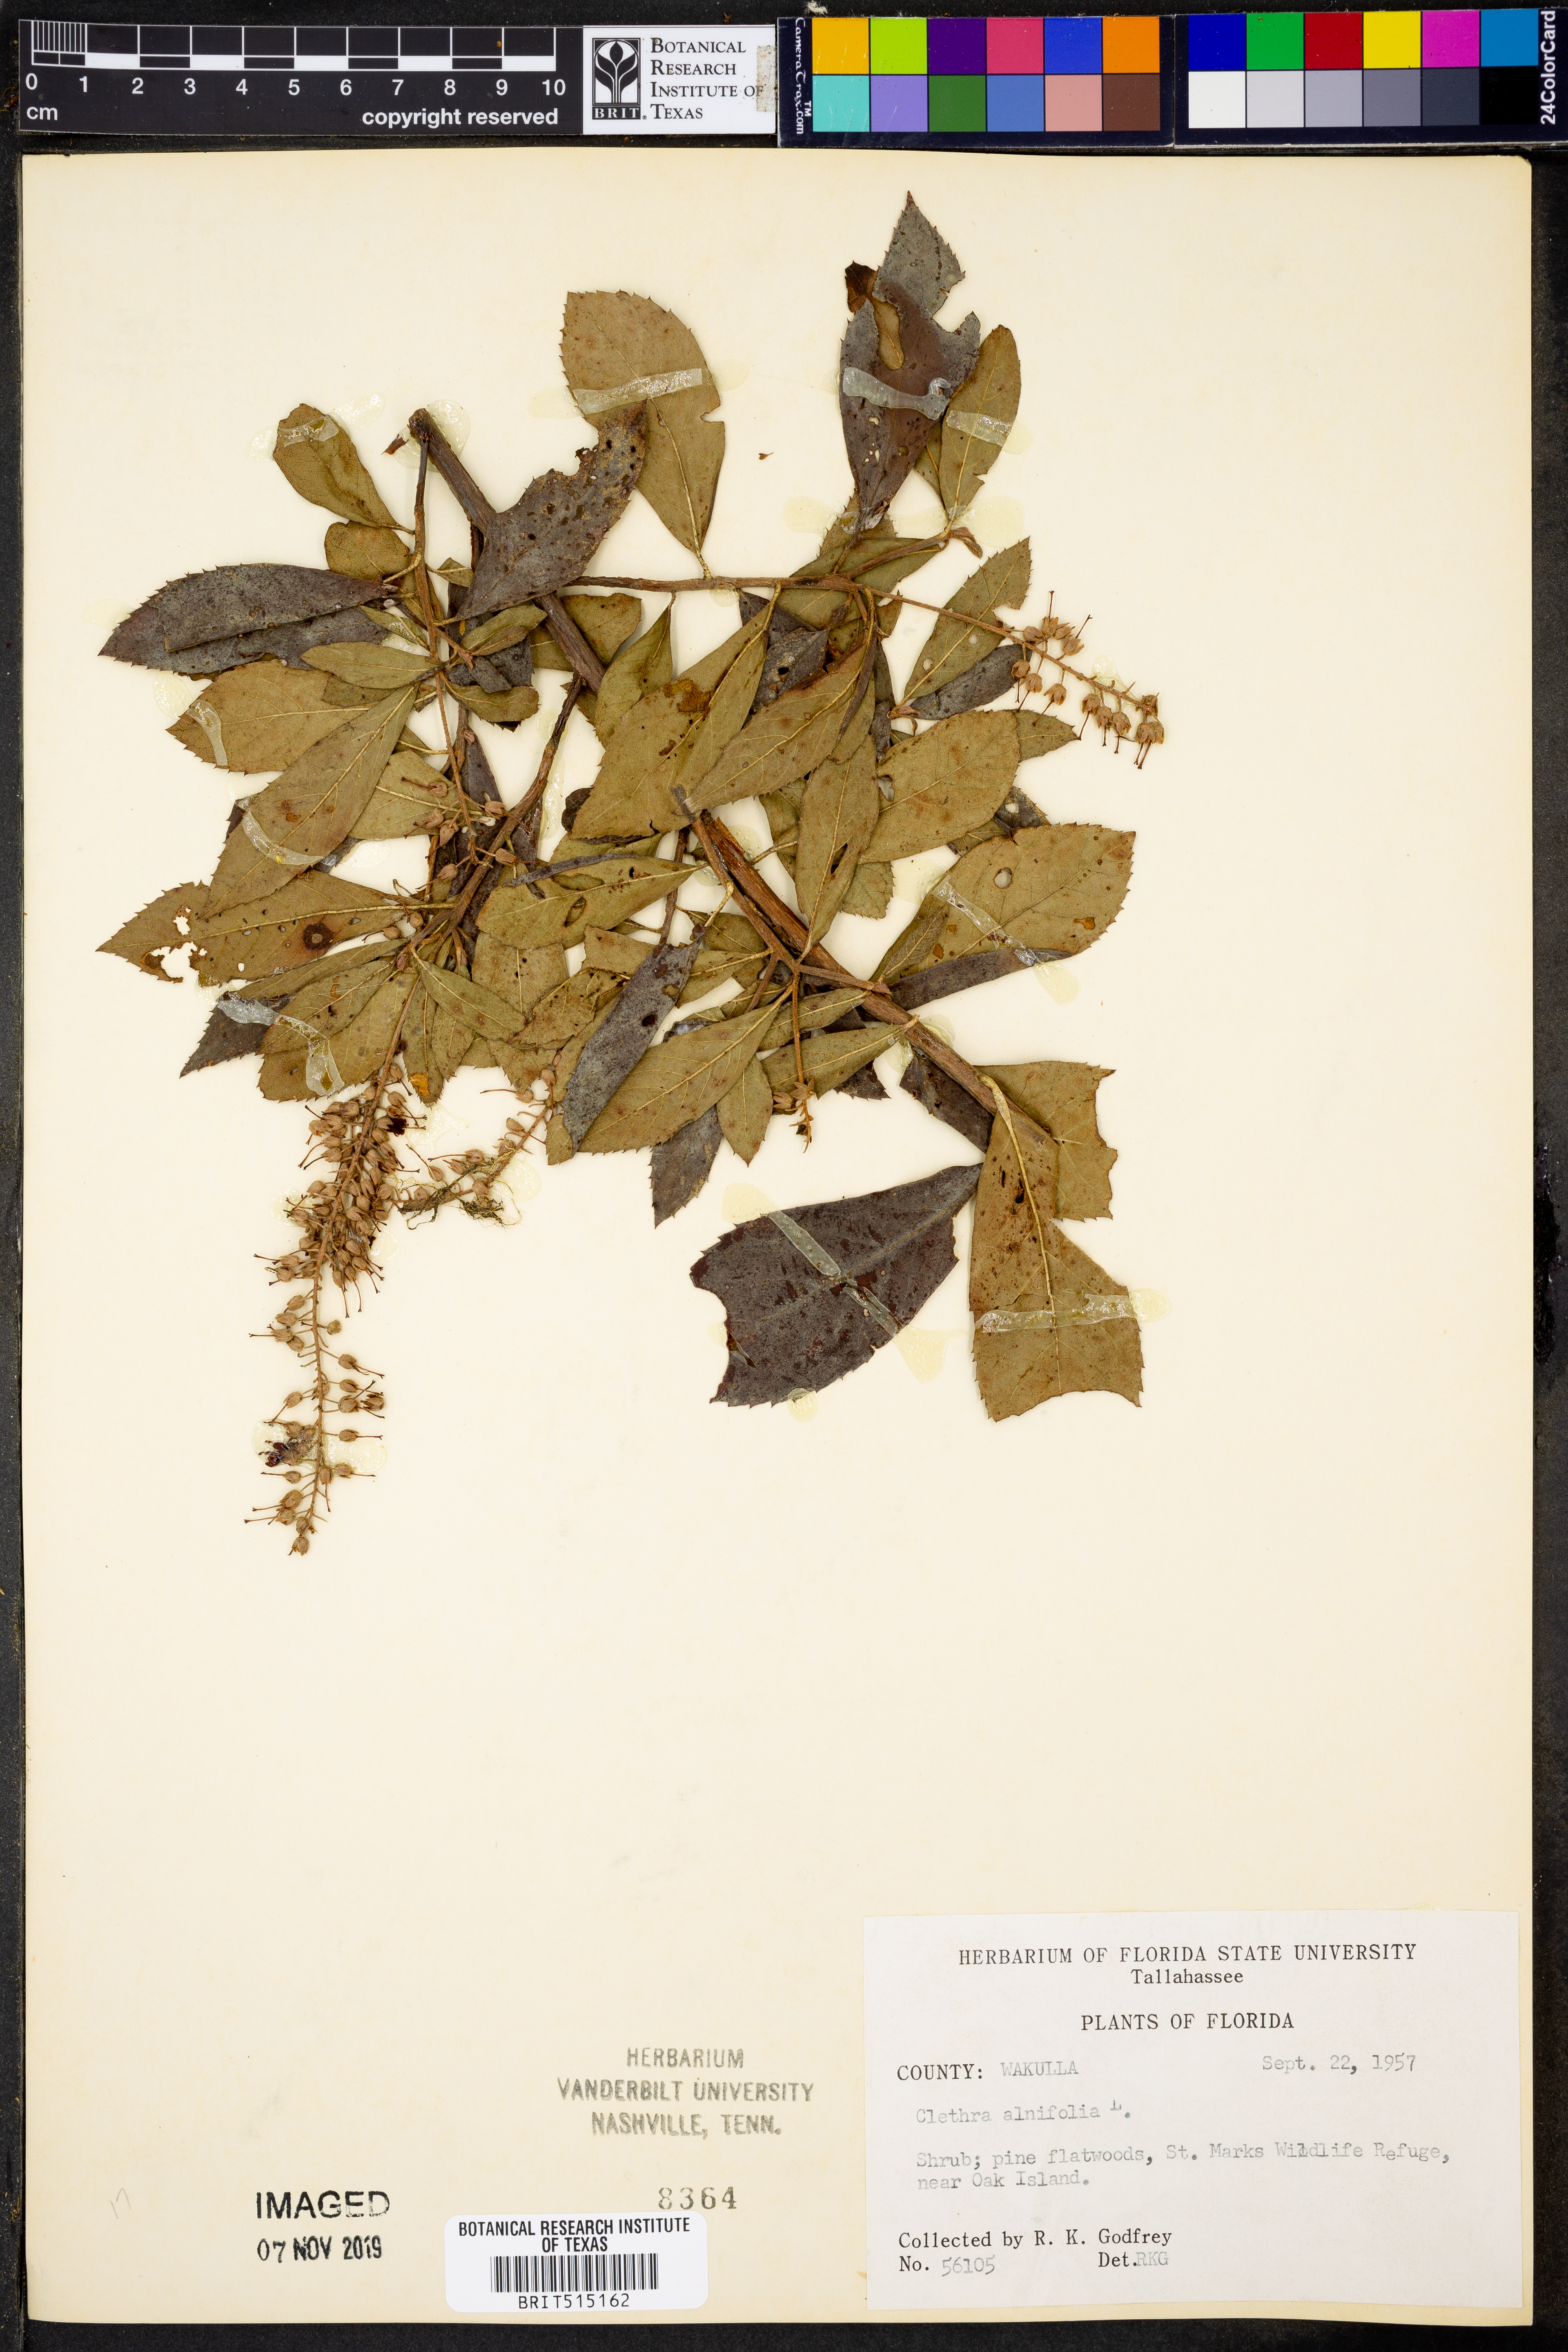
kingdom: Plantae
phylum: Tracheophyta
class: Magnoliopsida
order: Ericales
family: Clethraceae
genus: Clethra
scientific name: Clethra alnifolia
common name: Sweet pepperbush
